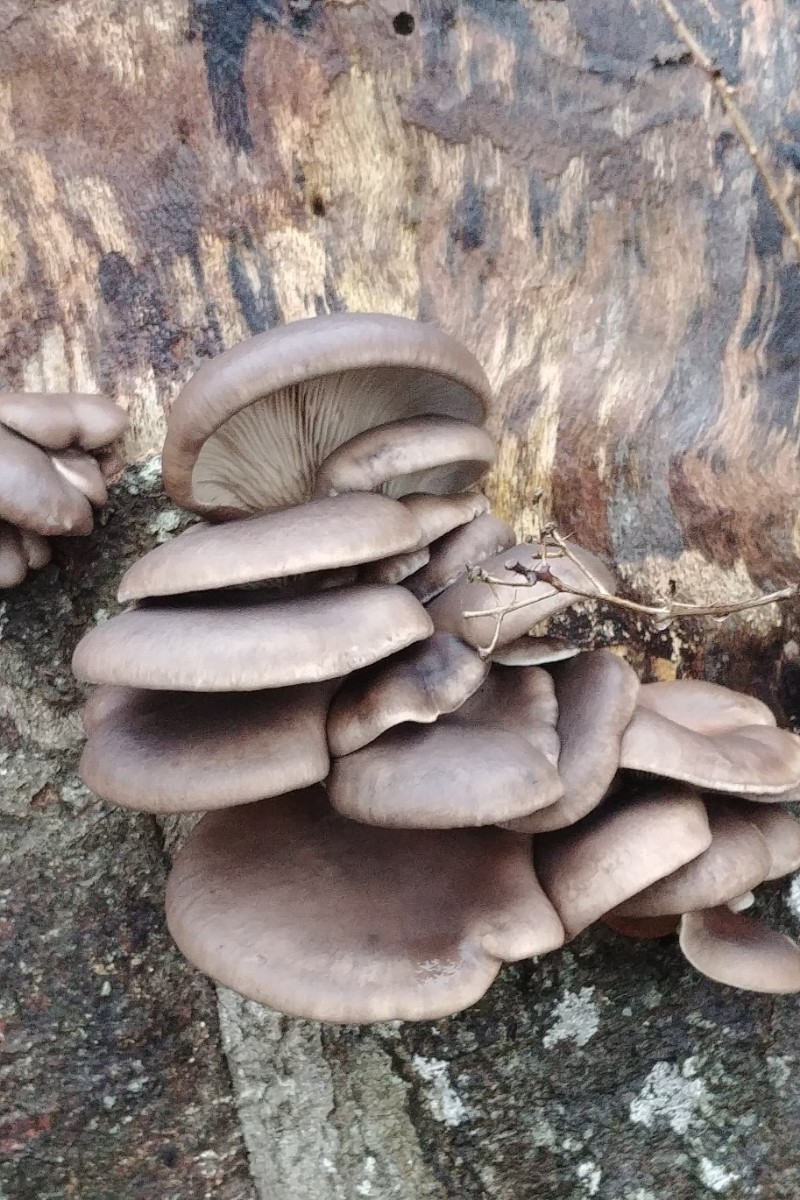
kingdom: Fungi
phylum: Basidiomycota
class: Agaricomycetes
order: Agaricales
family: Pleurotaceae
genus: Pleurotus
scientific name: Pleurotus ostreatus
